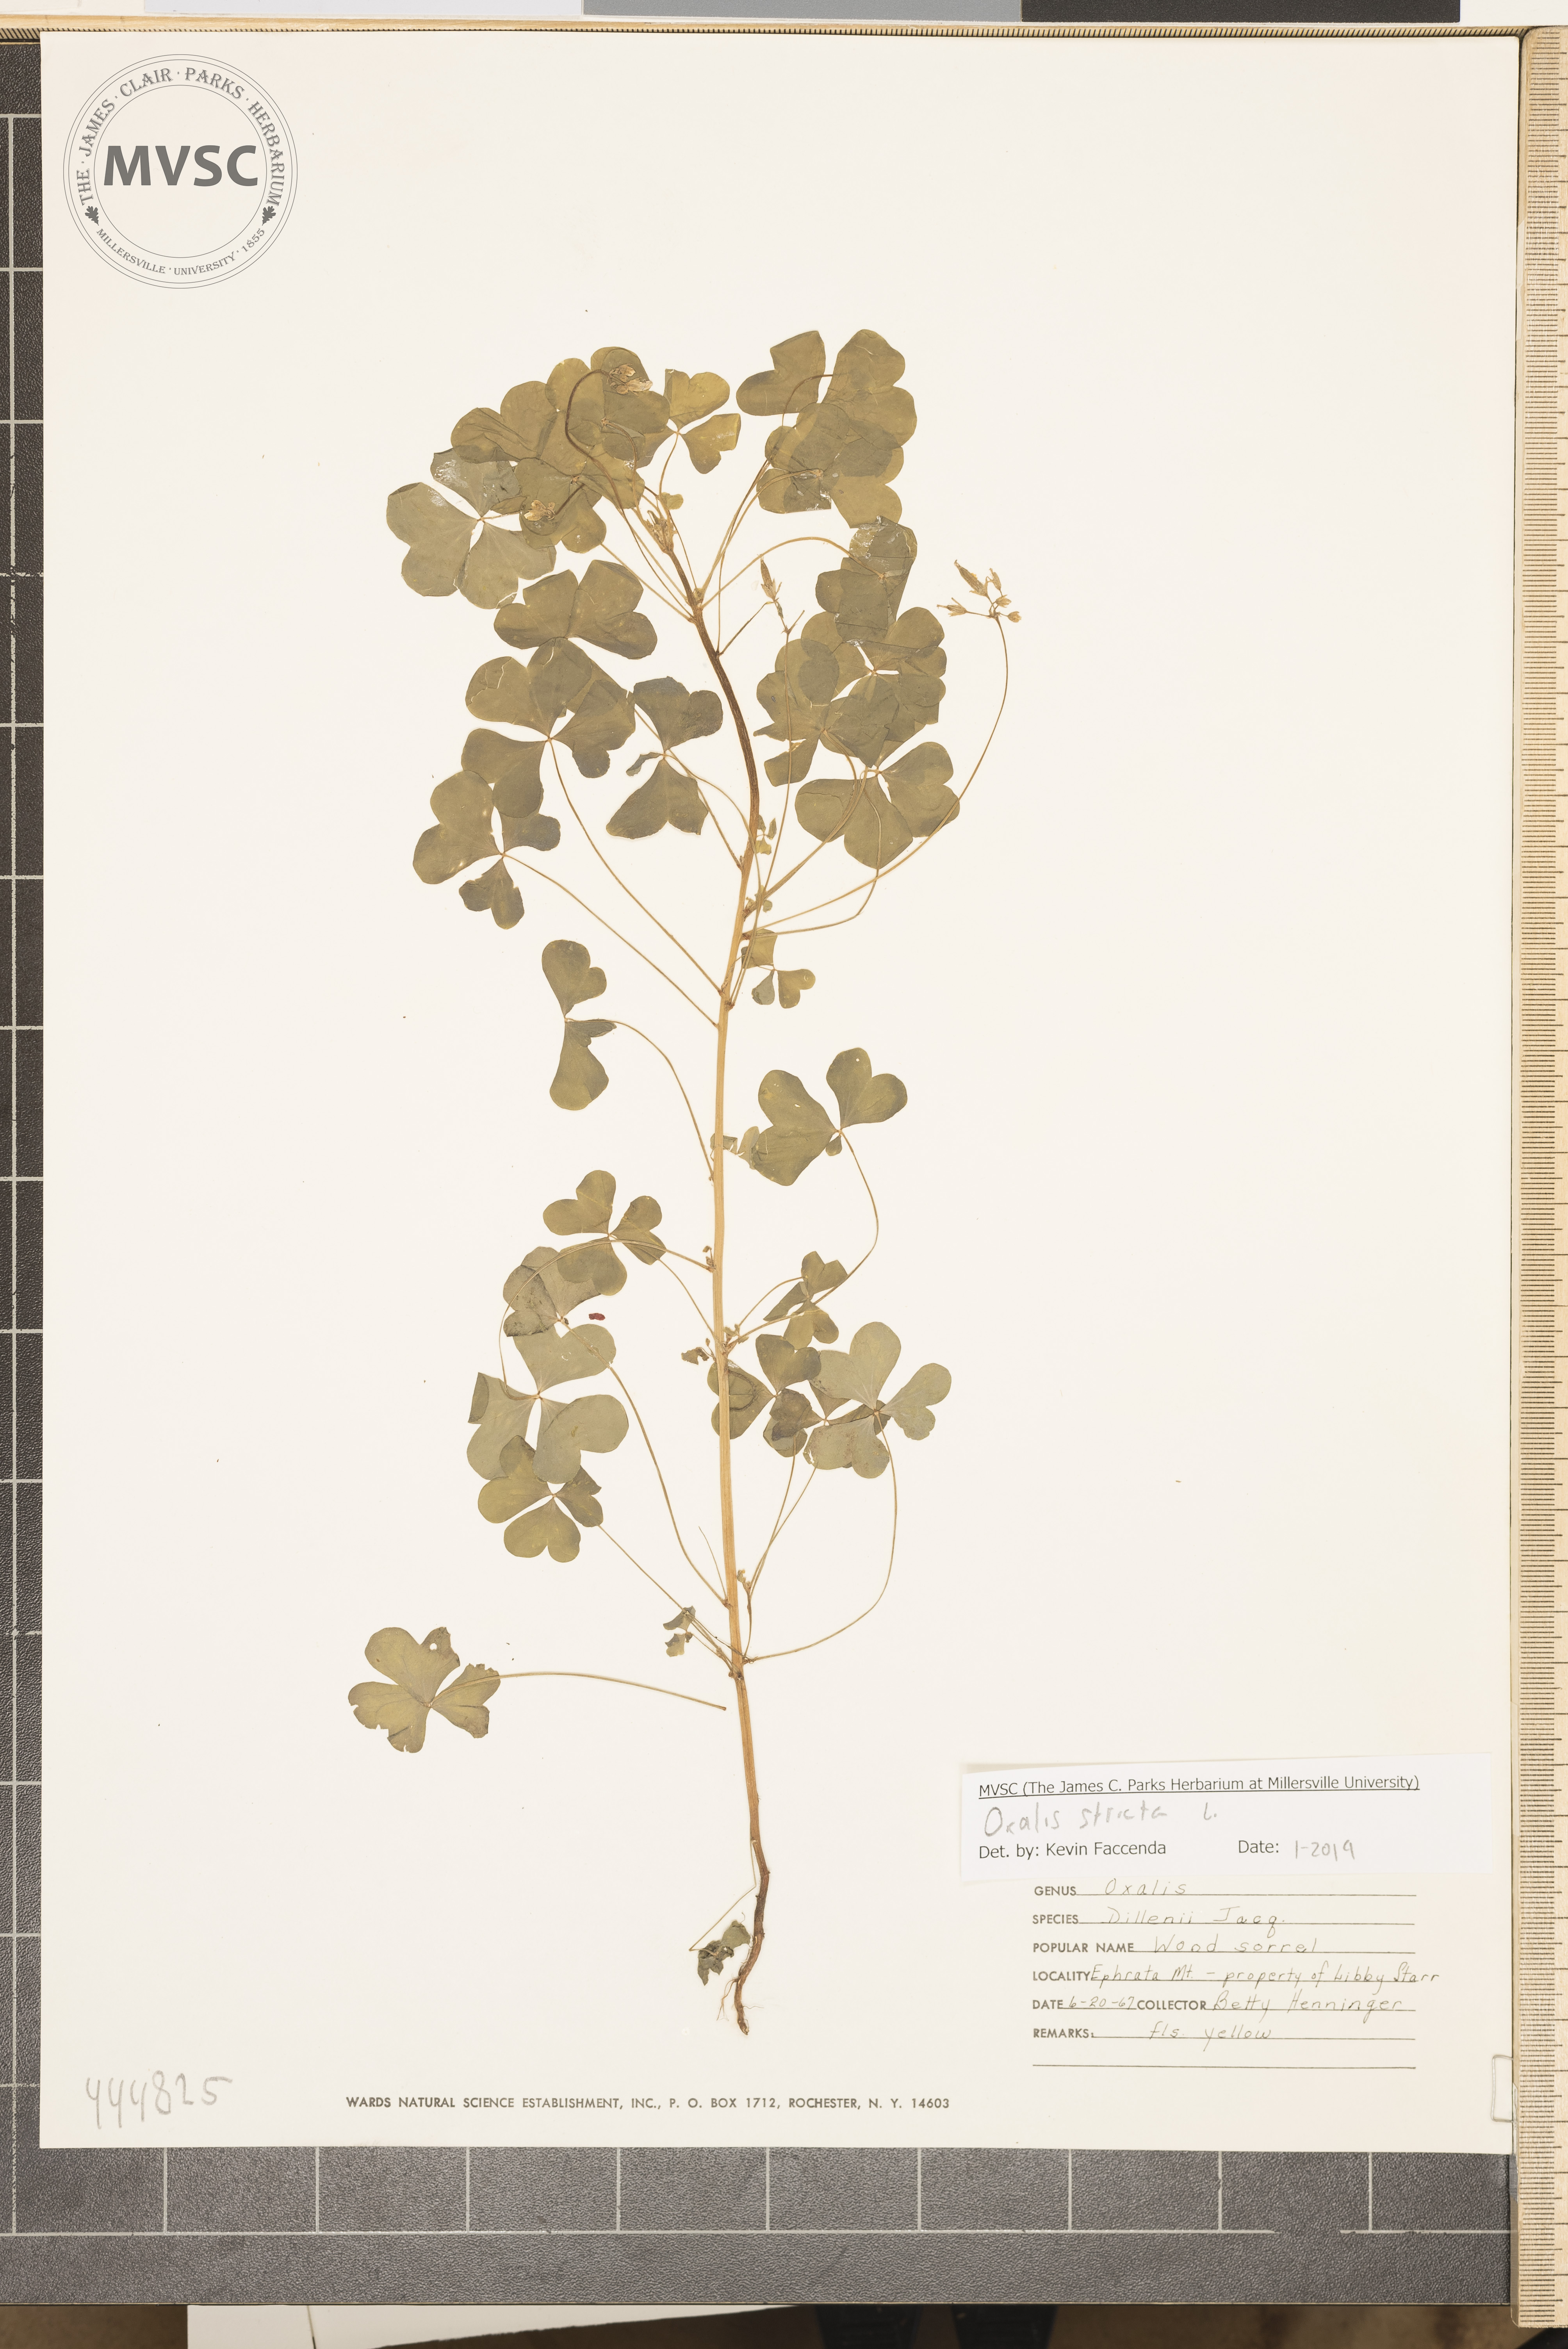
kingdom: Plantae
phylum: Tracheophyta
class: Magnoliopsida
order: Oxalidales
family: Oxalidaceae
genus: Oxalis
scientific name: Oxalis stricta
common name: Upright yellow-sorrel
